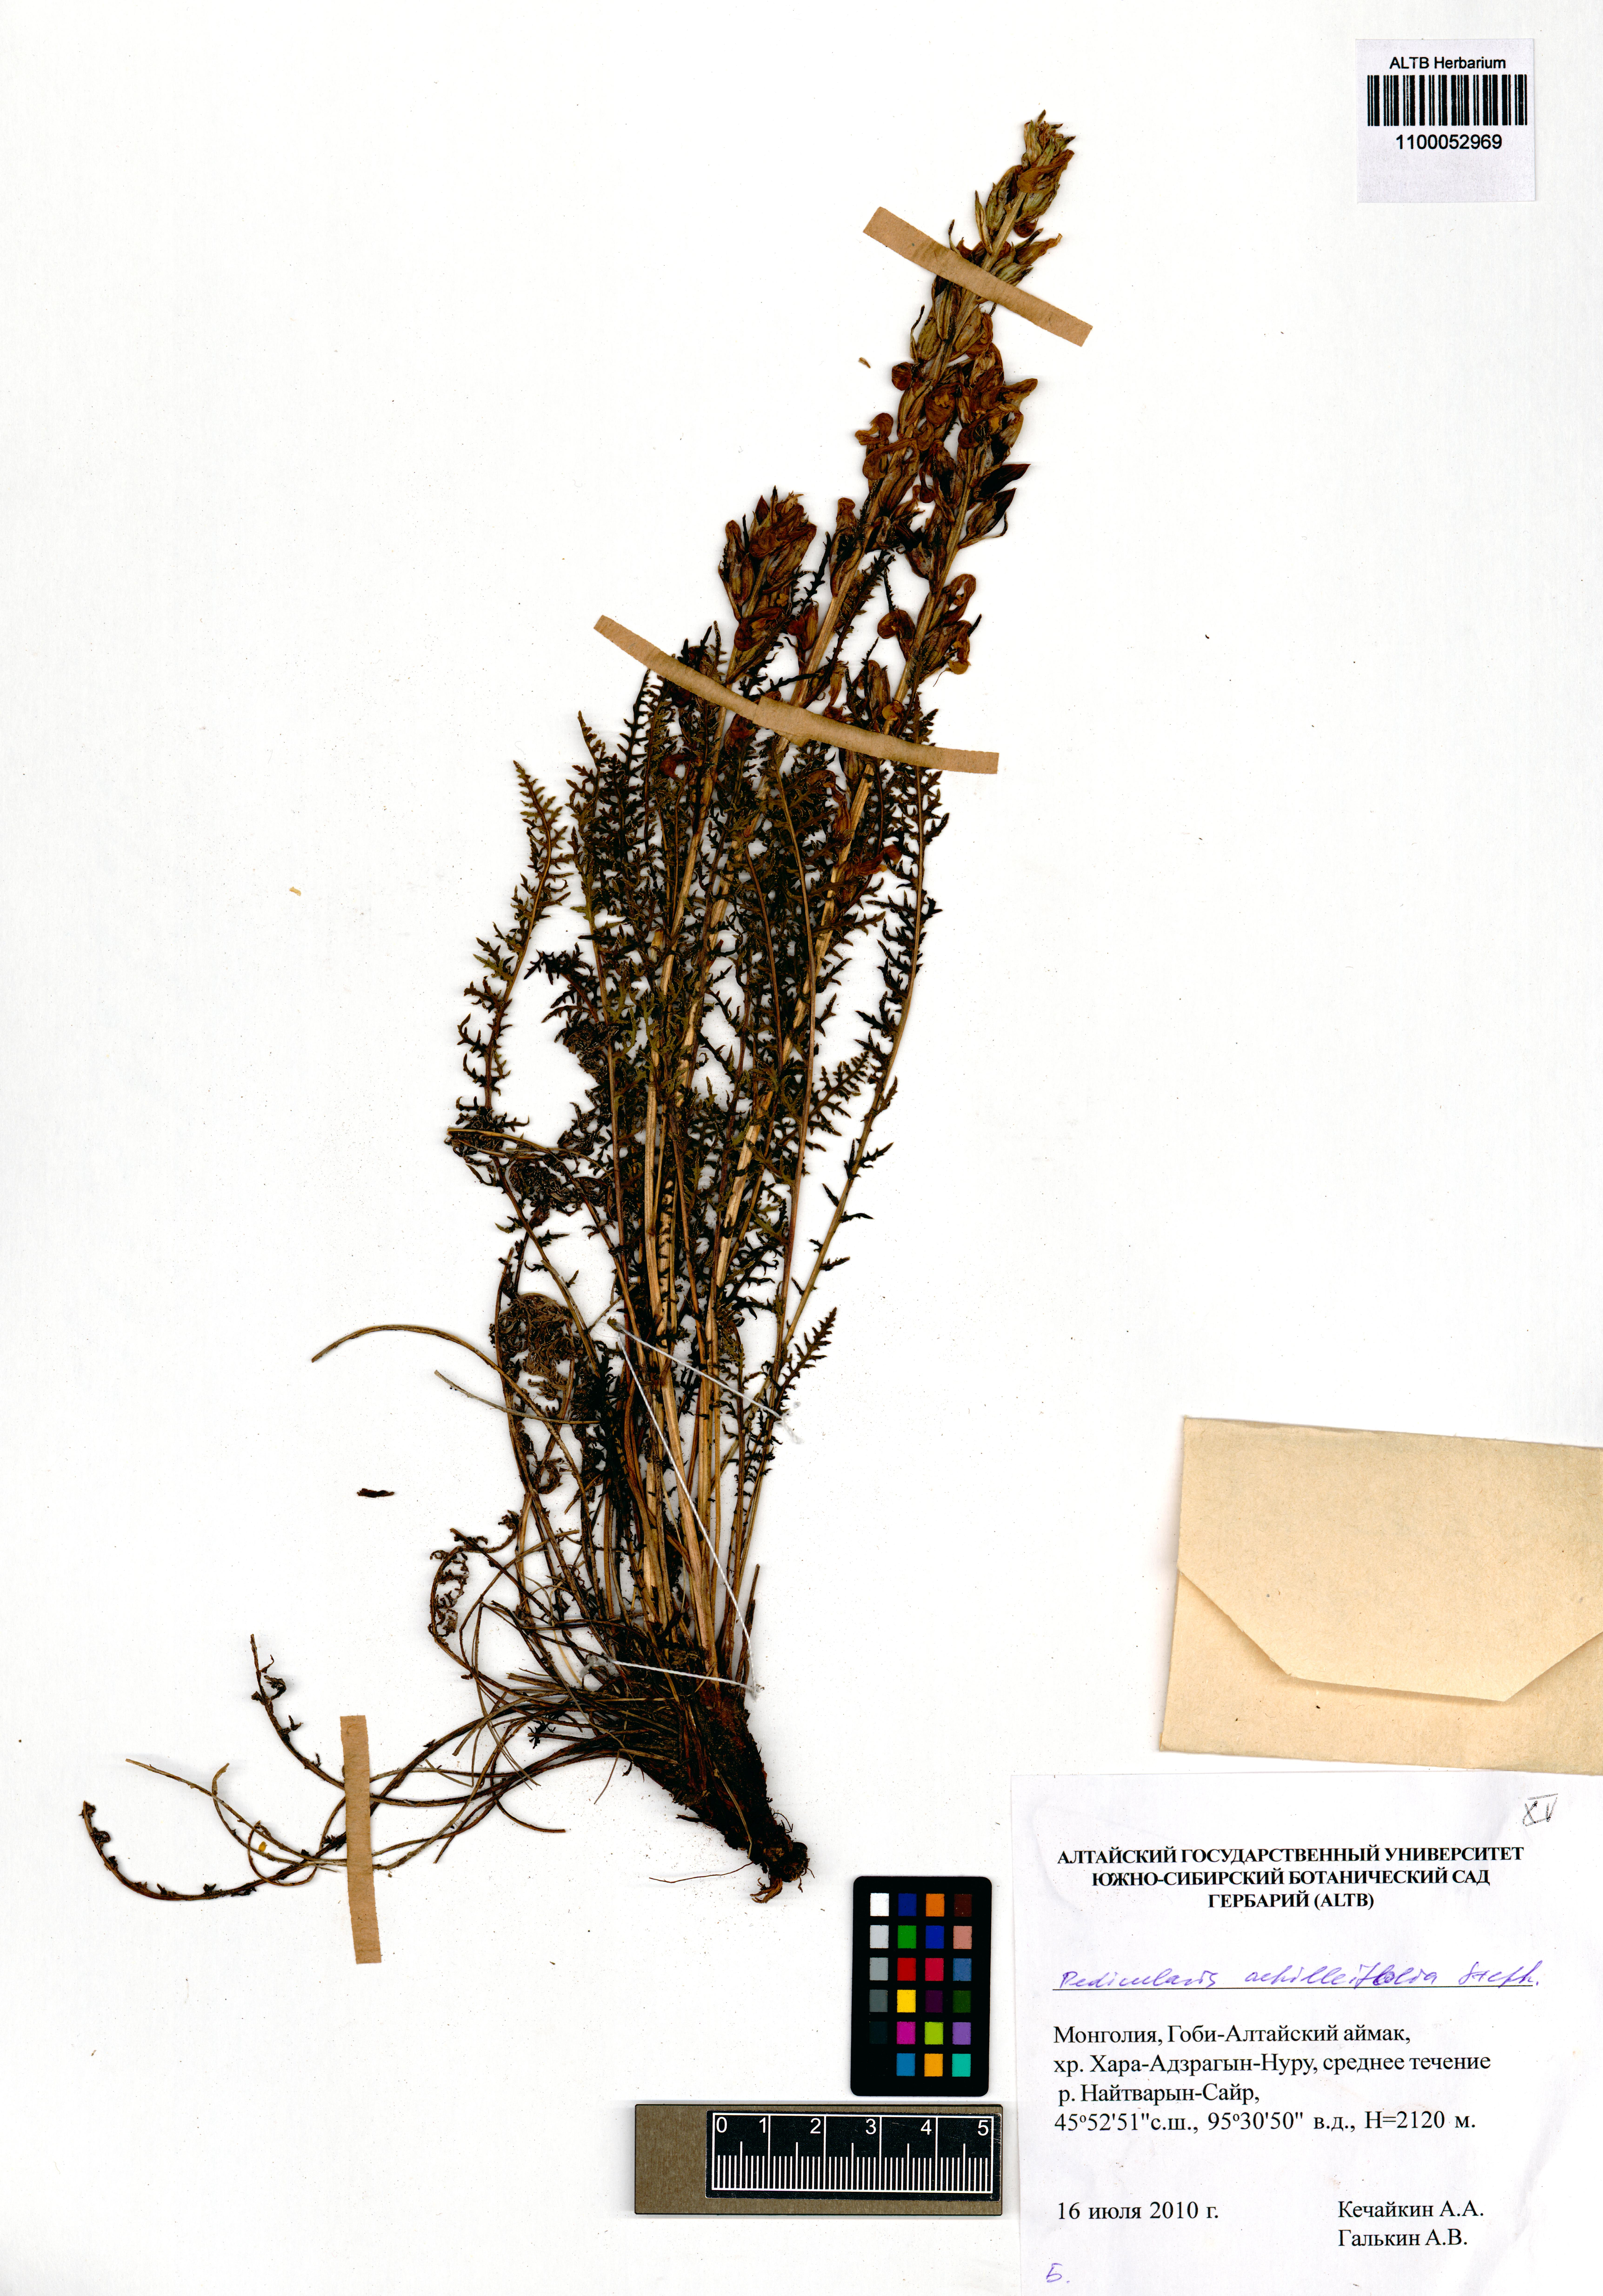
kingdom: Plantae
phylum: Tracheophyta
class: Magnoliopsida
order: Lamiales
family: Orobanchaceae
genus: Pedicularis
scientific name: Pedicularis achilleifolia
